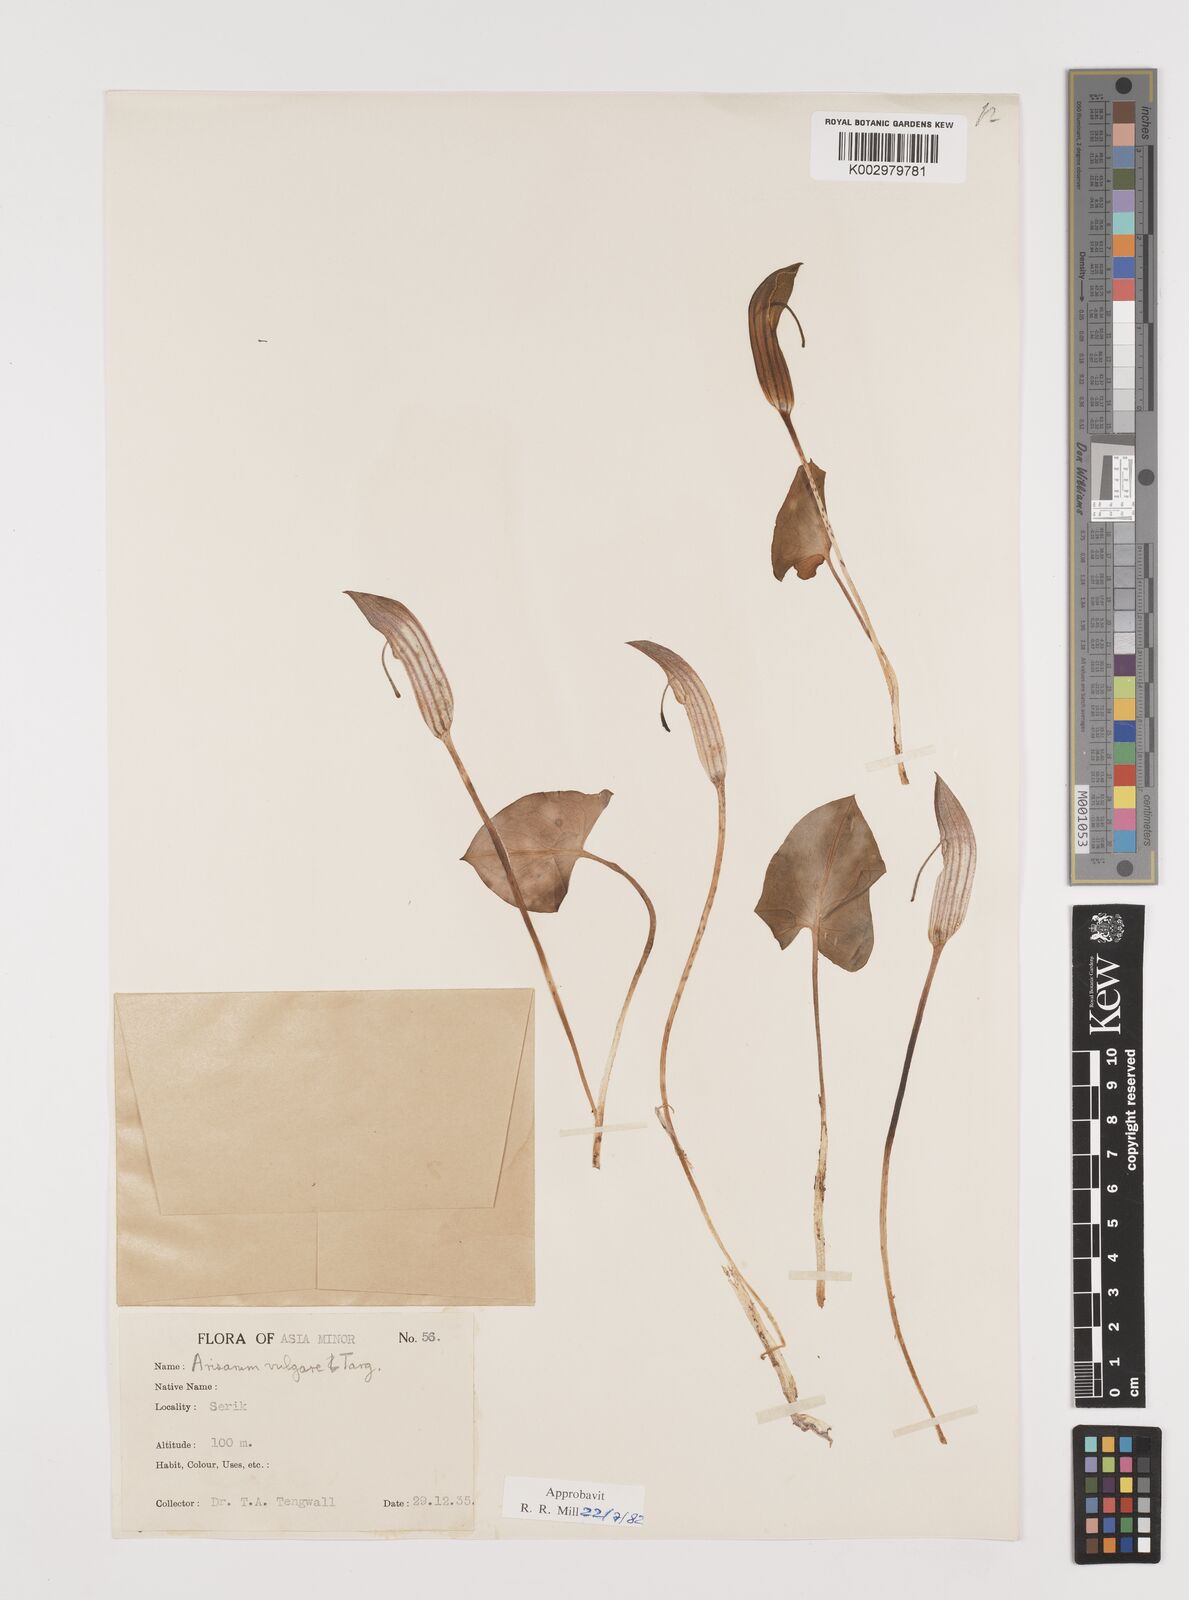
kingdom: Plantae
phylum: Tracheophyta
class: Liliopsida
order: Alismatales
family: Araceae
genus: Arisarum
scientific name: Arisarum vulgare
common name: Common arisarum
